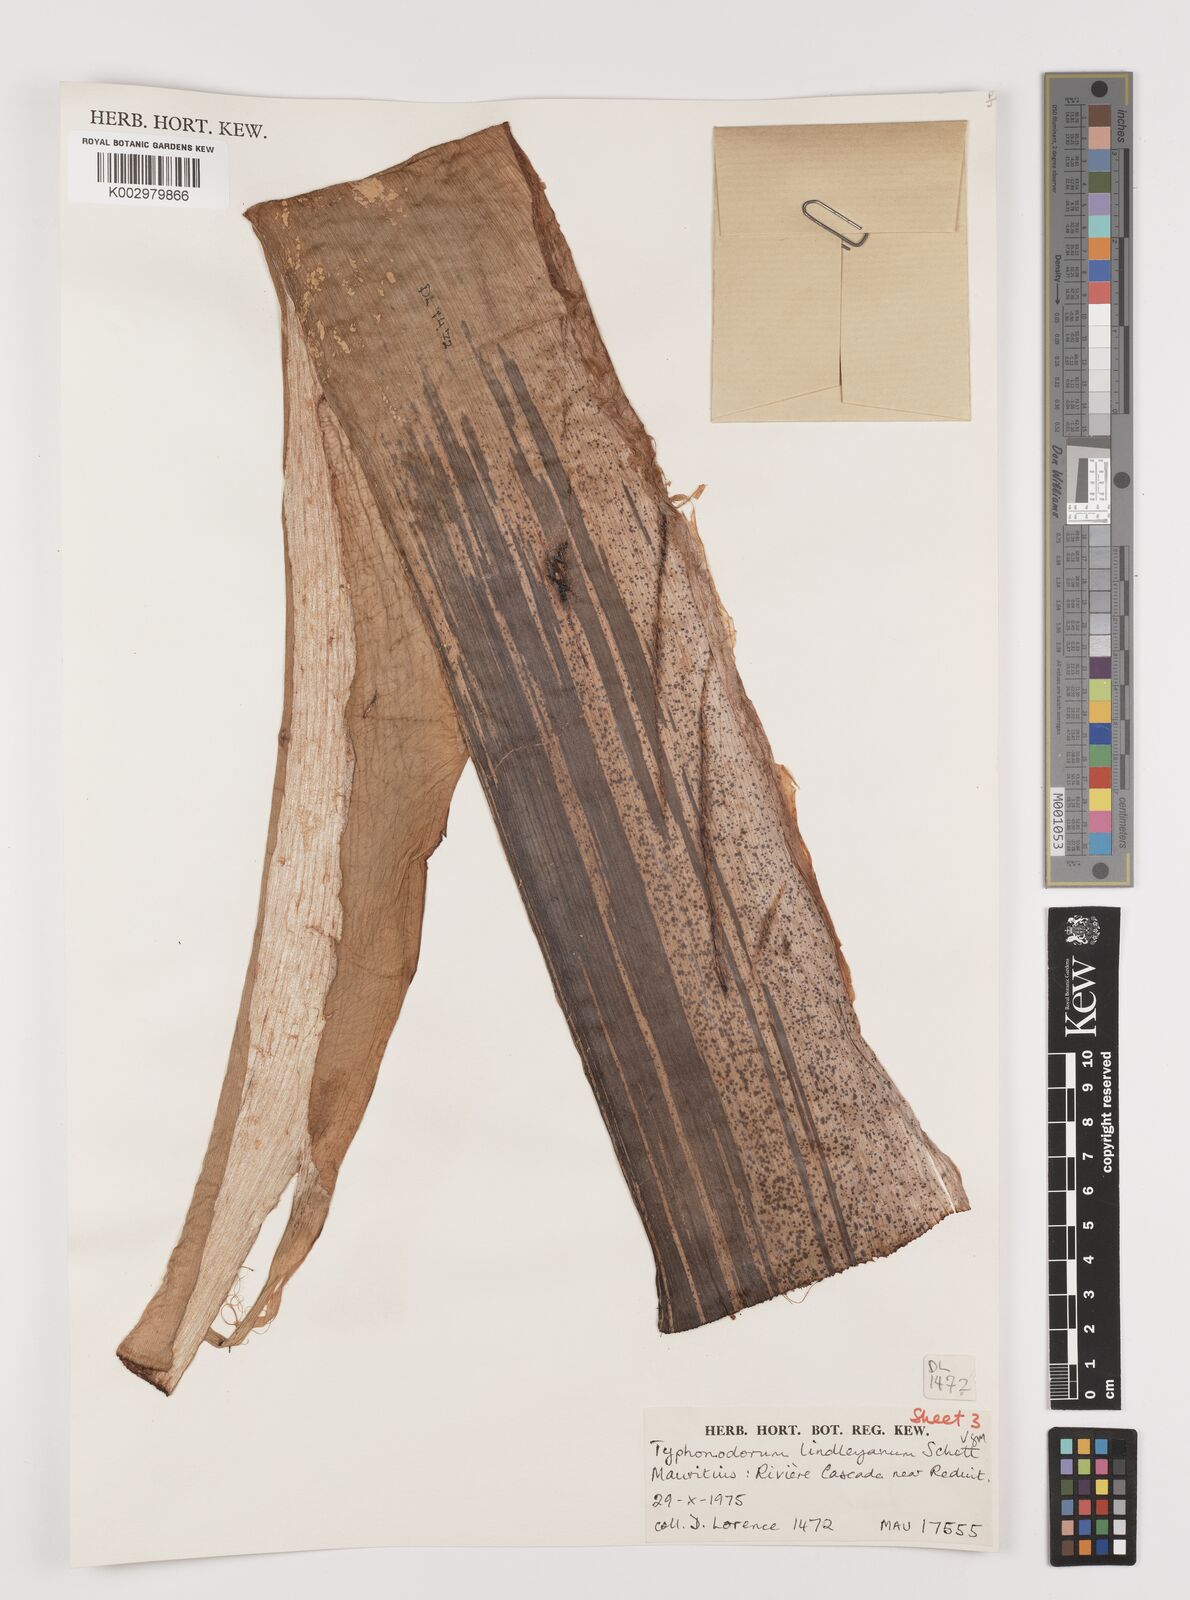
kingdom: Plantae
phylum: Tracheophyta
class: Liliopsida
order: Alismatales
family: Araceae
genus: Typhonodorum
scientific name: Typhonodorum lindleyanum
